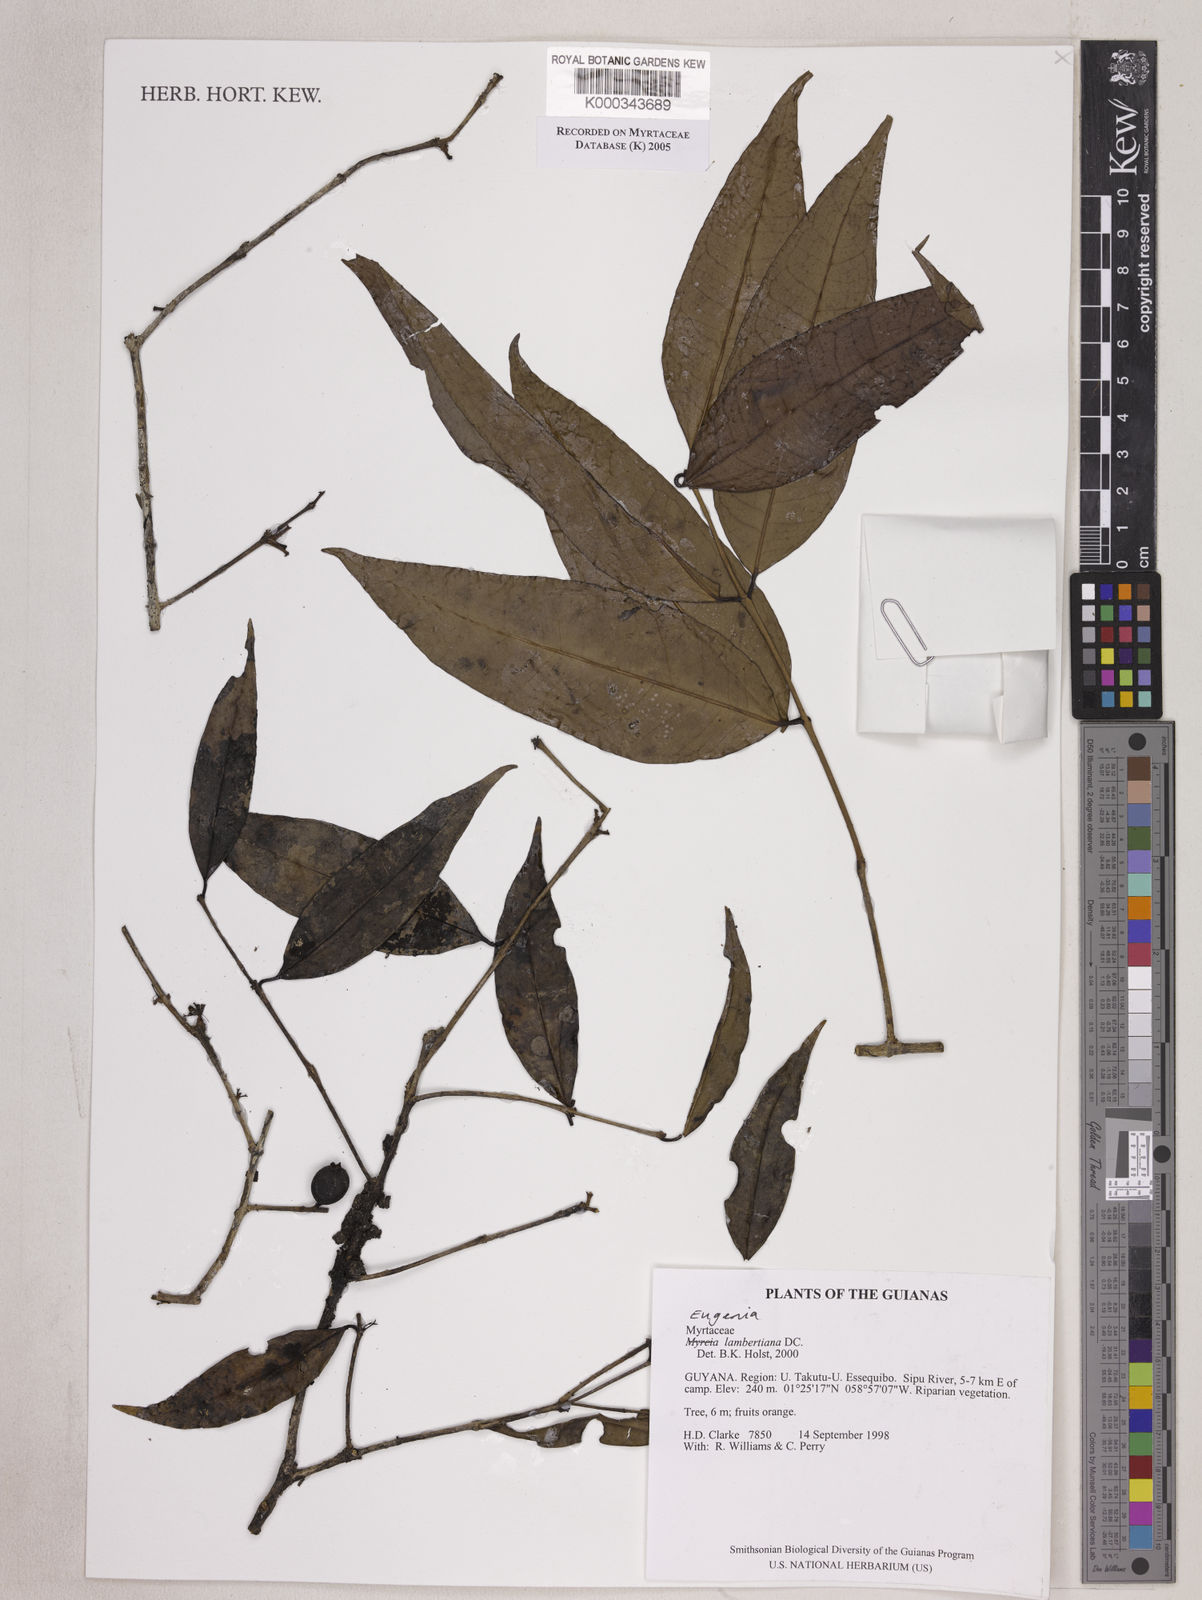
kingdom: Plantae
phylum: Tracheophyta
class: Magnoliopsida
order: Myrtales
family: Myrtaceae
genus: Eugenia
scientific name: Eugenia lambertiana
